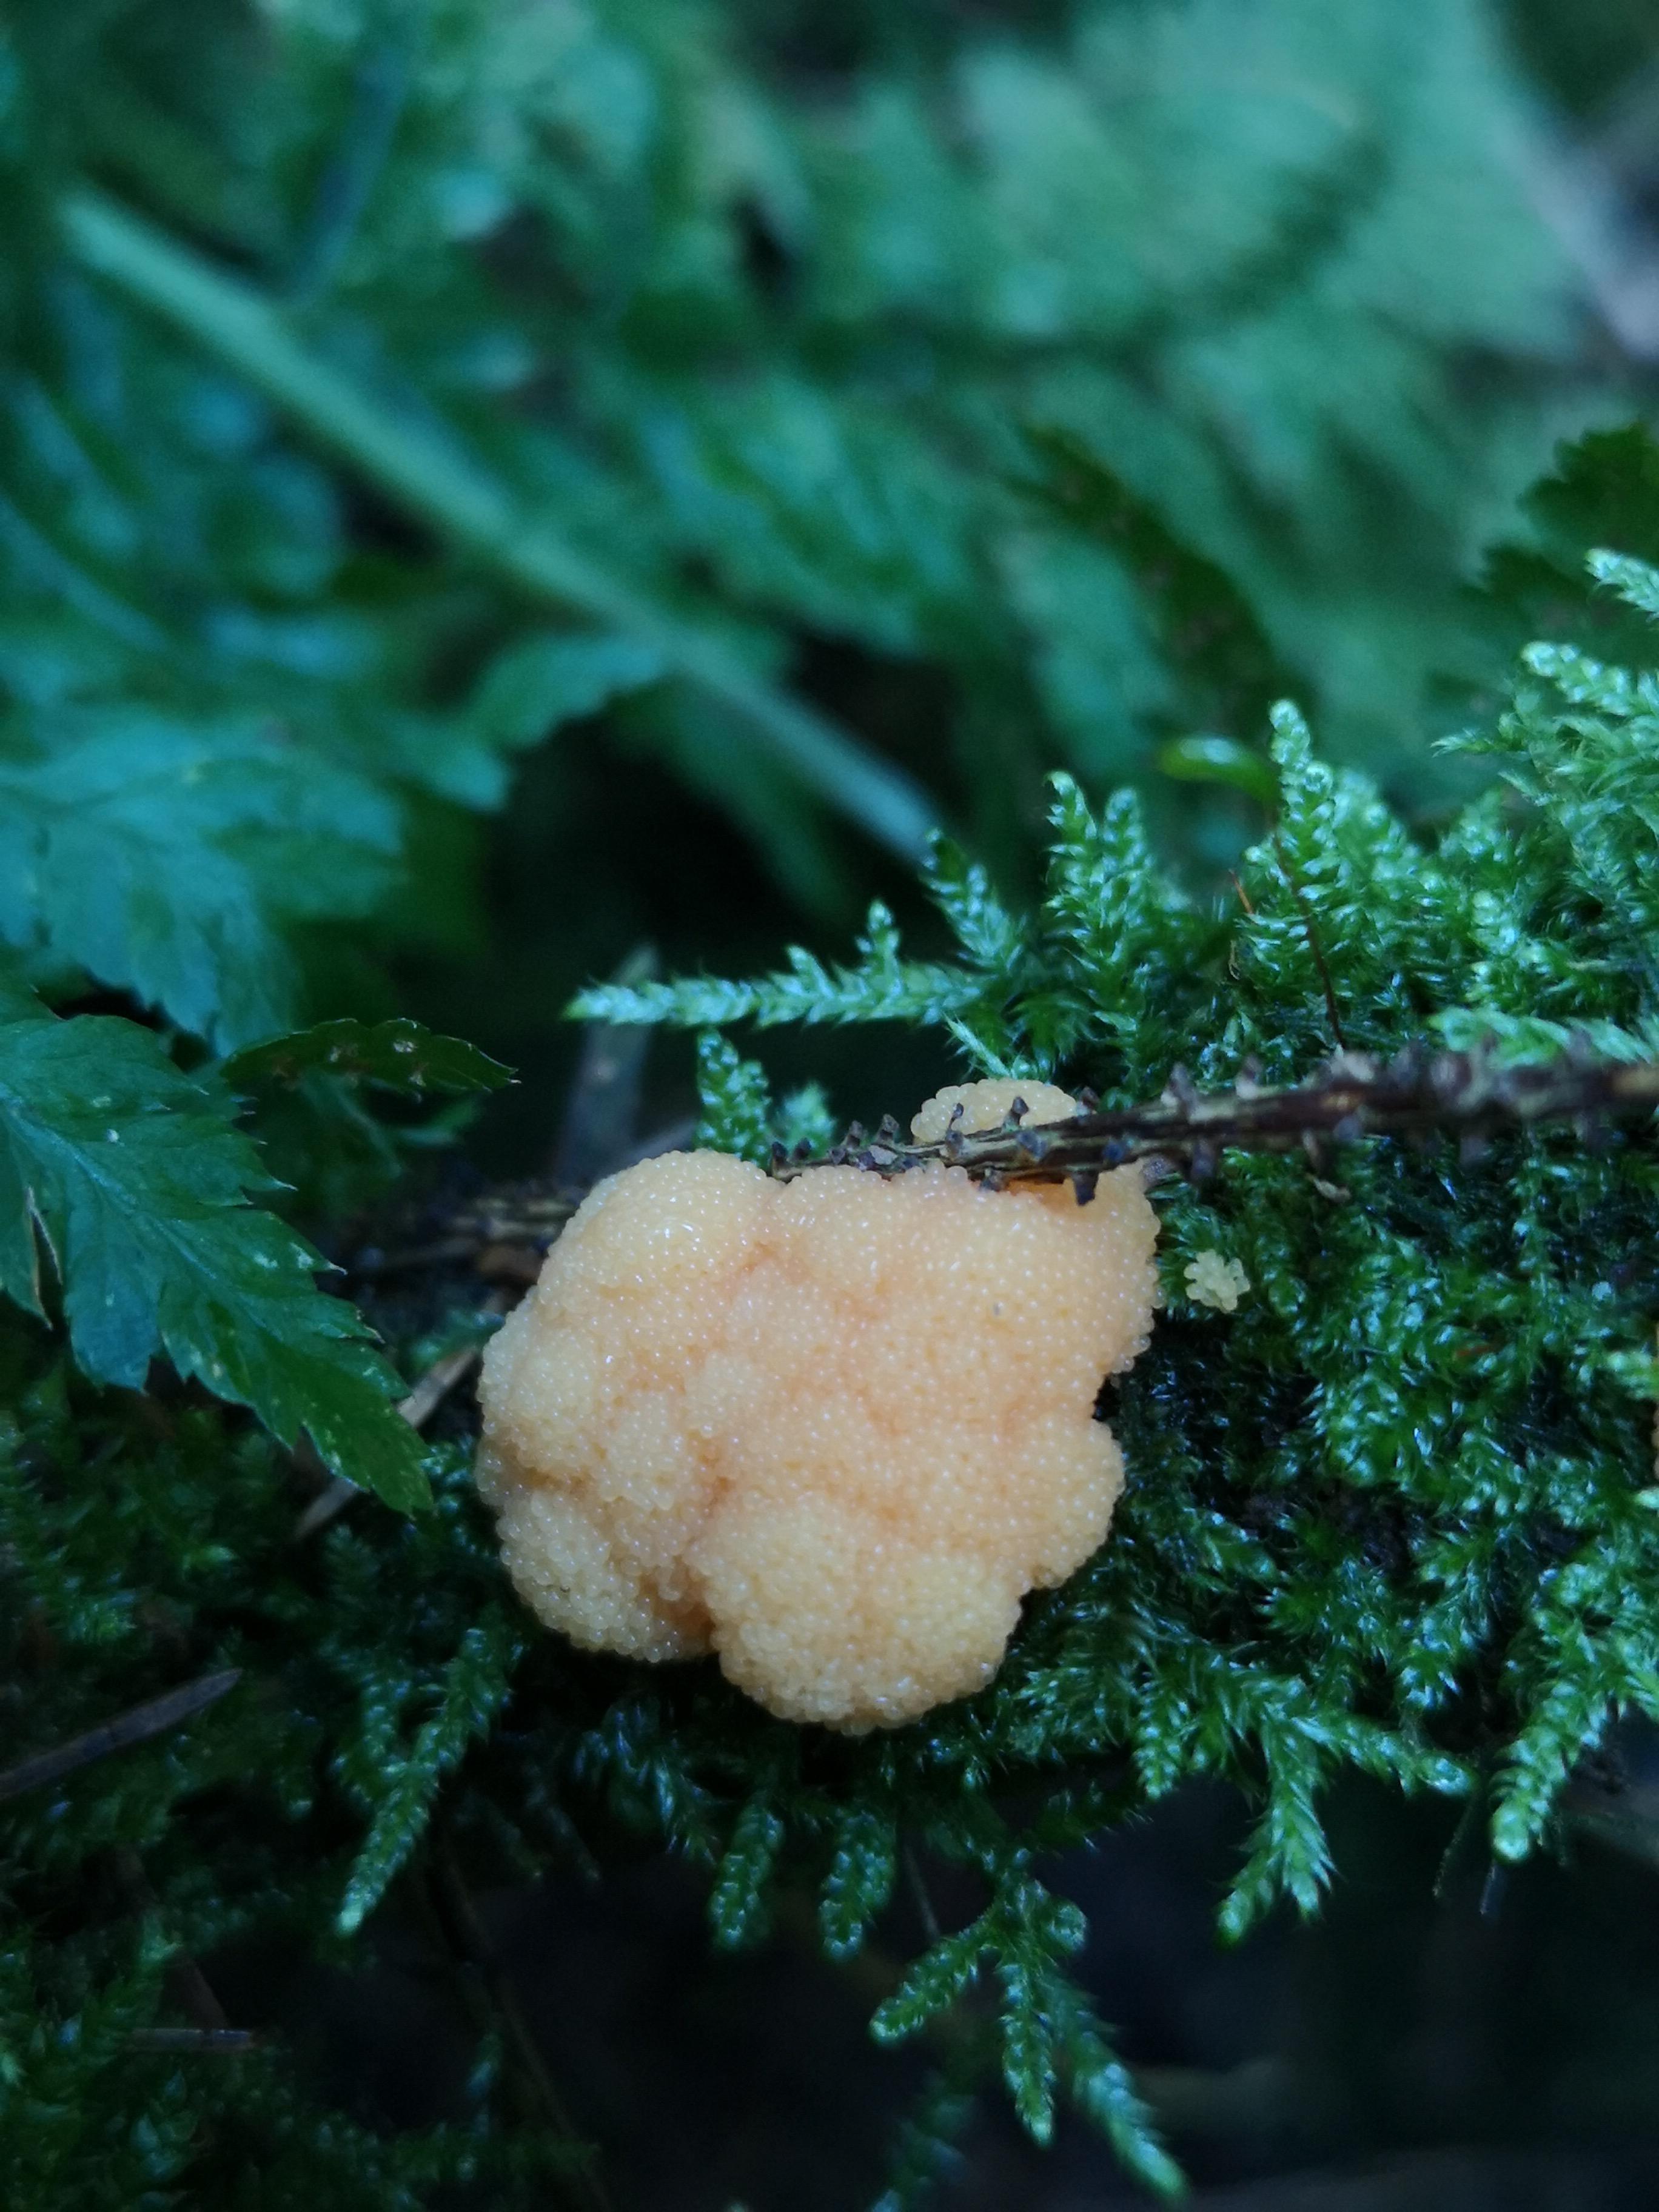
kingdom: Protozoa
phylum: Mycetozoa
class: Myxomycetes
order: Cribrariales
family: Tubiferaceae
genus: Tubifera
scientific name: Tubifera ferruginosa
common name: kanel-støvrør
